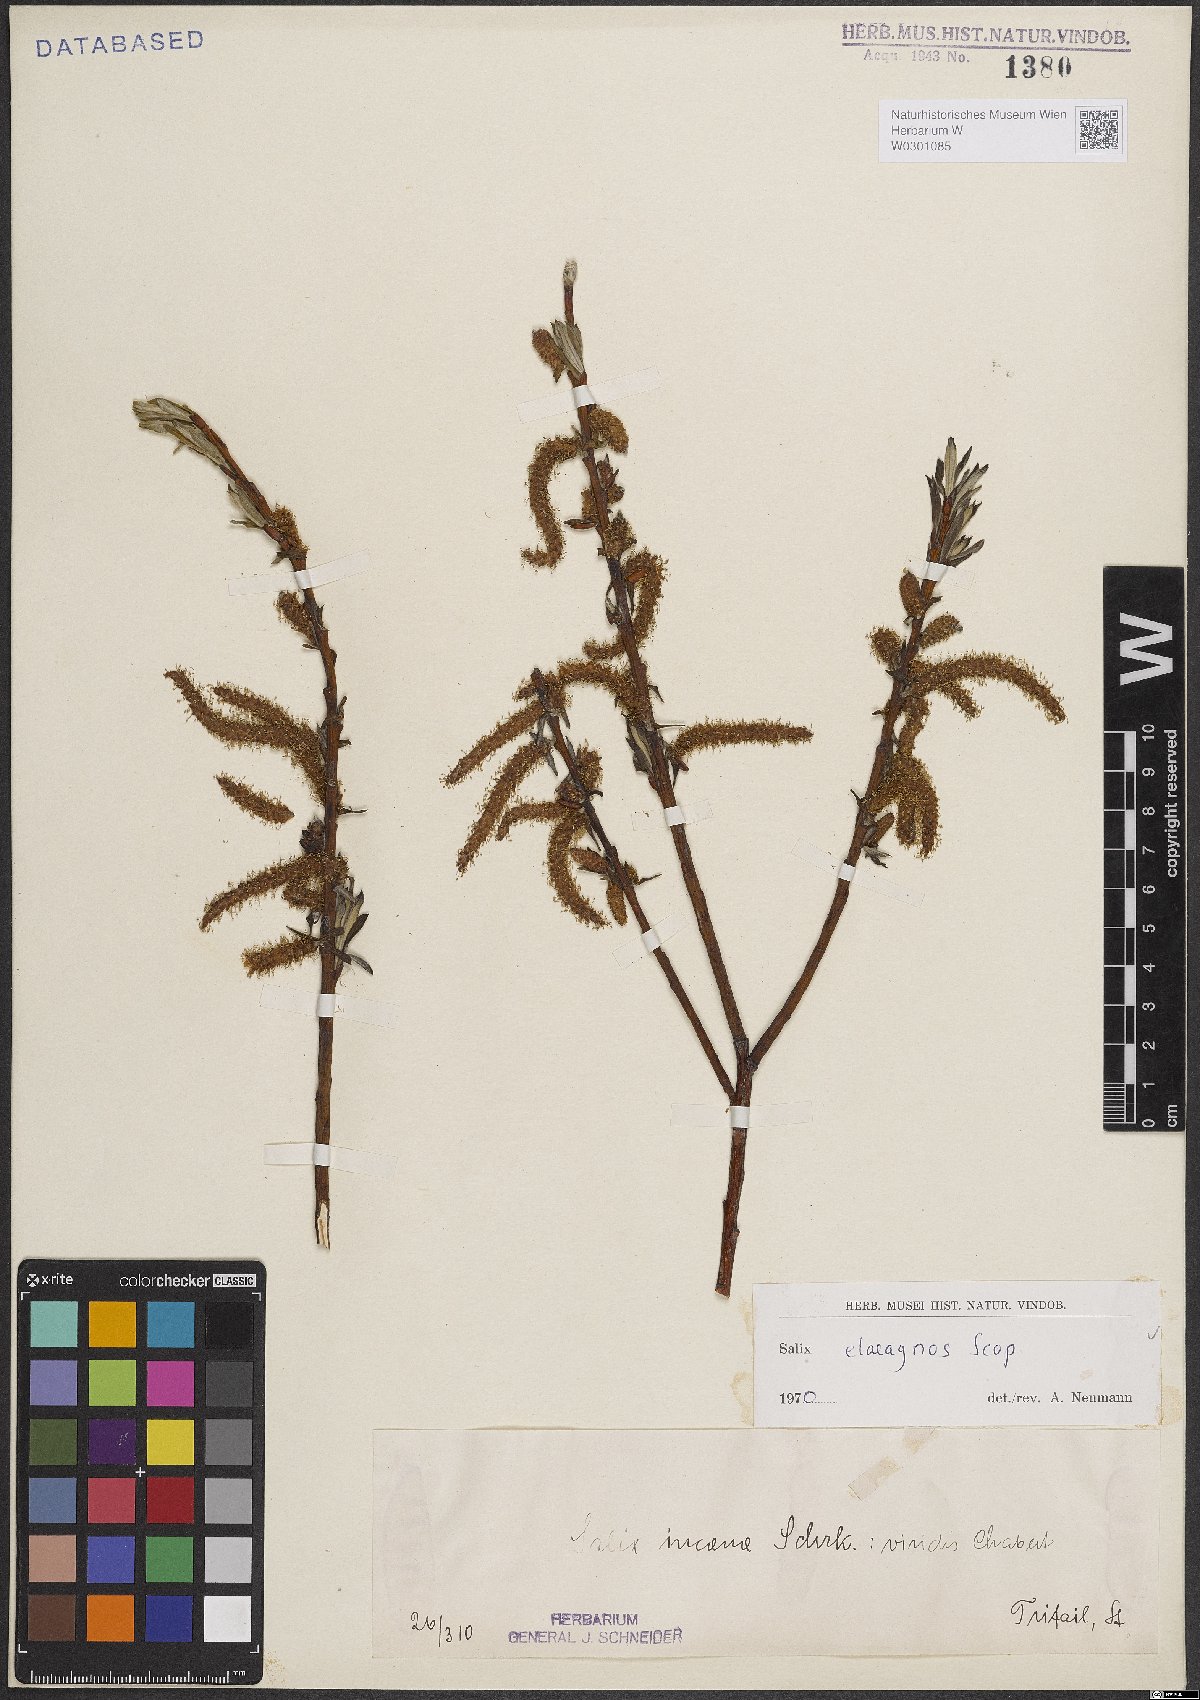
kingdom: Plantae
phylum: Tracheophyta
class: Magnoliopsida
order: Malpighiales
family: Salicaceae
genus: Salix
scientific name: Salix eleagnos
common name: Elaeagnus willow
